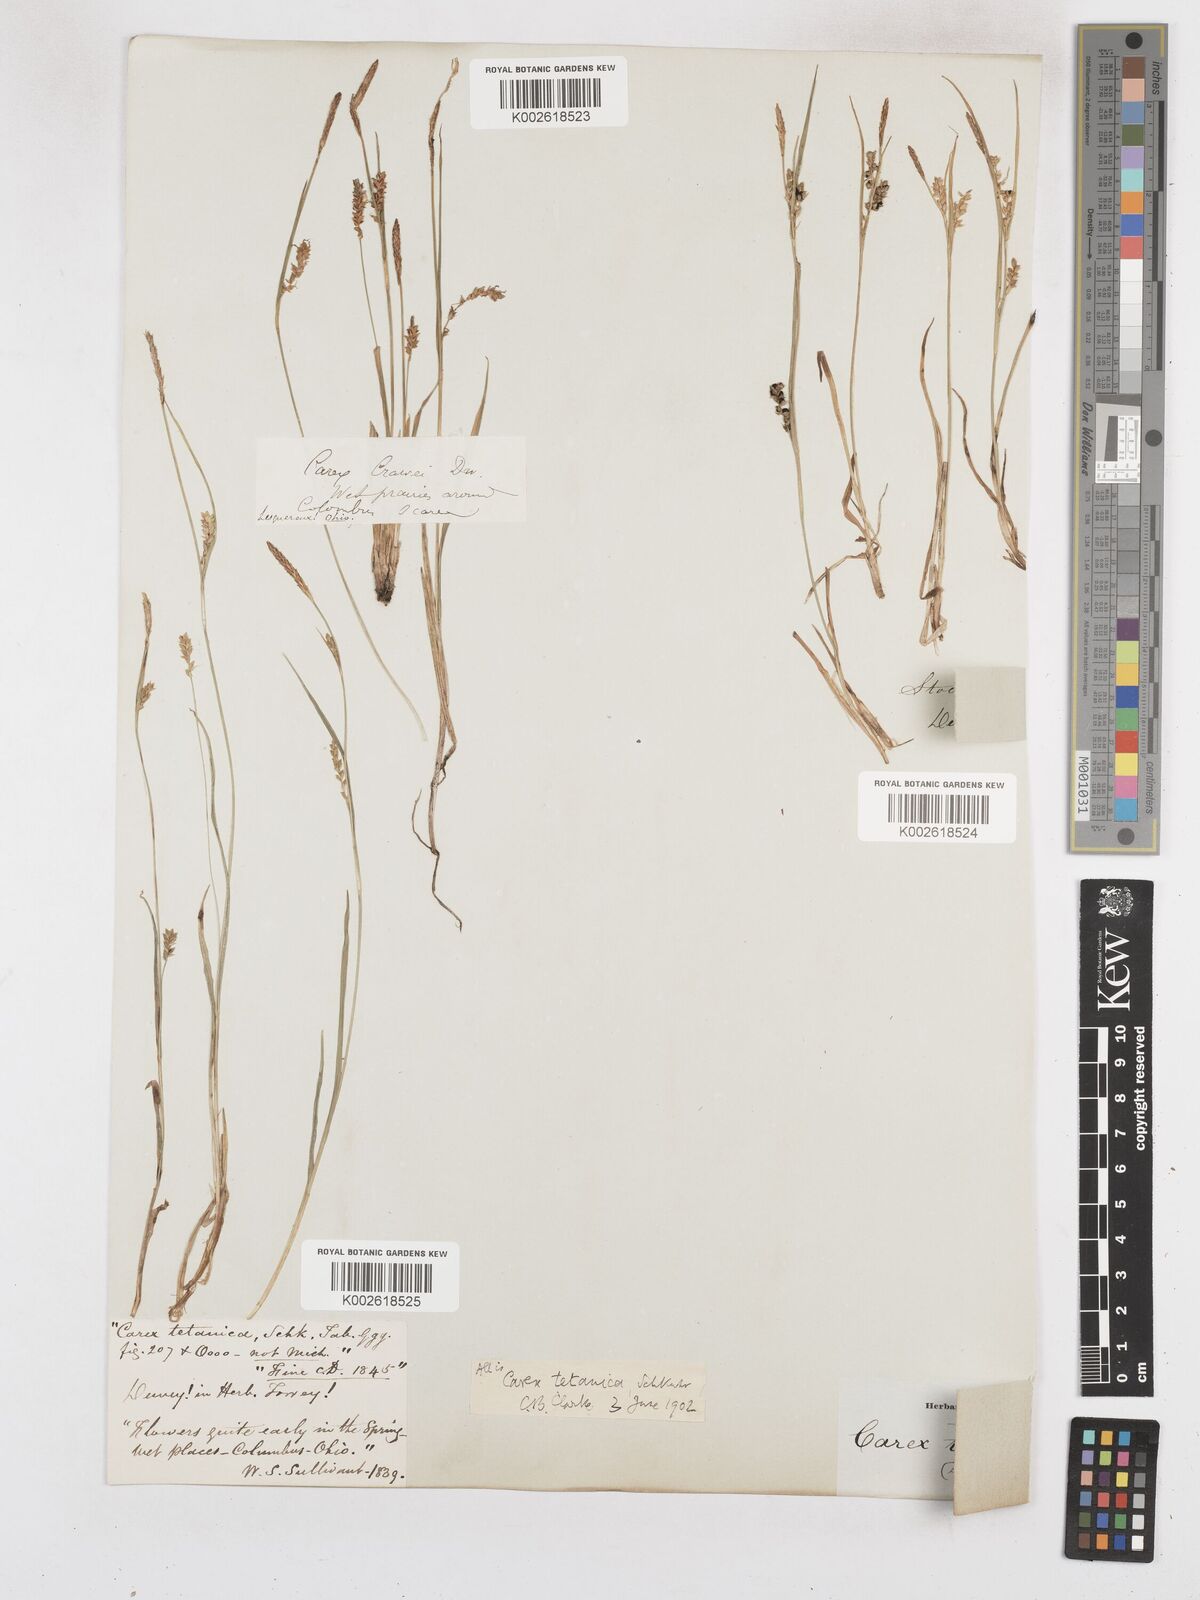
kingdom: Plantae
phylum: Tracheophyta
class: Liliopsida
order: Poales
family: Cyperaceae
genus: Carex
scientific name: Carex tetanica
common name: Rigid sedge
